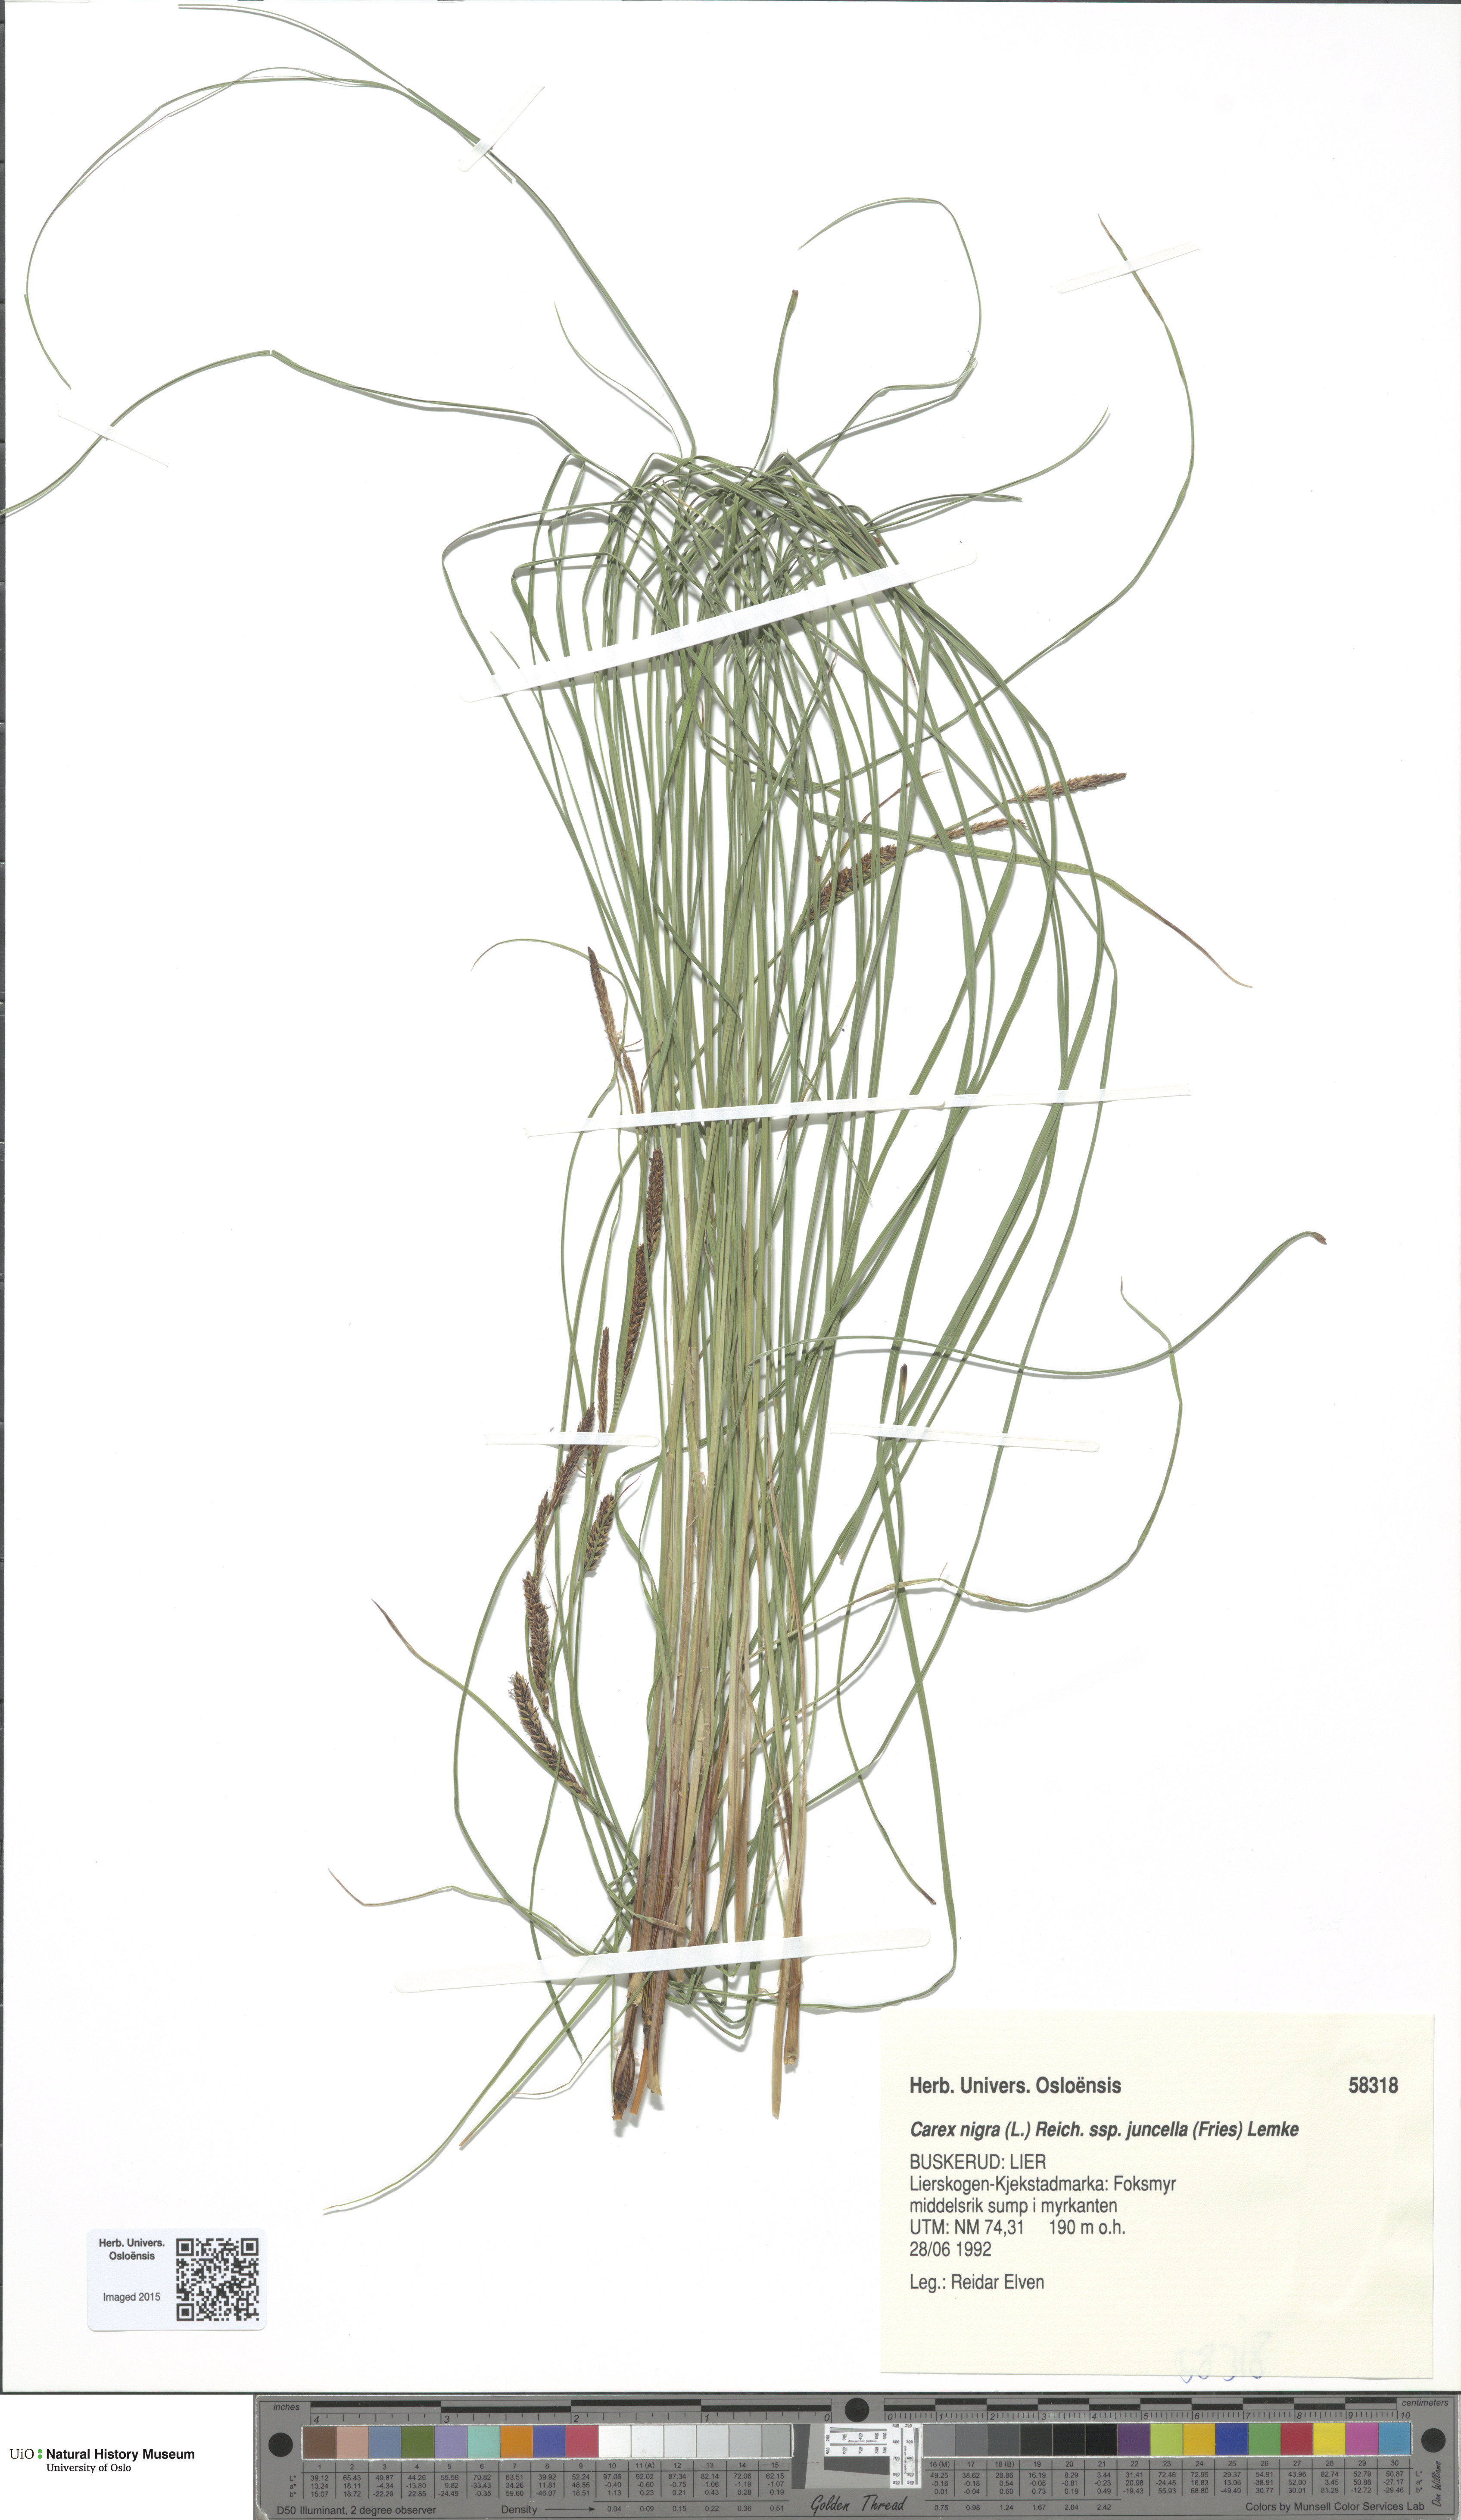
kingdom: Plantae
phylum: Tracheophyta
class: Liliopsida
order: Poales
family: Cyperaceae
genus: Carex
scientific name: Carex nigra
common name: Common sedge
